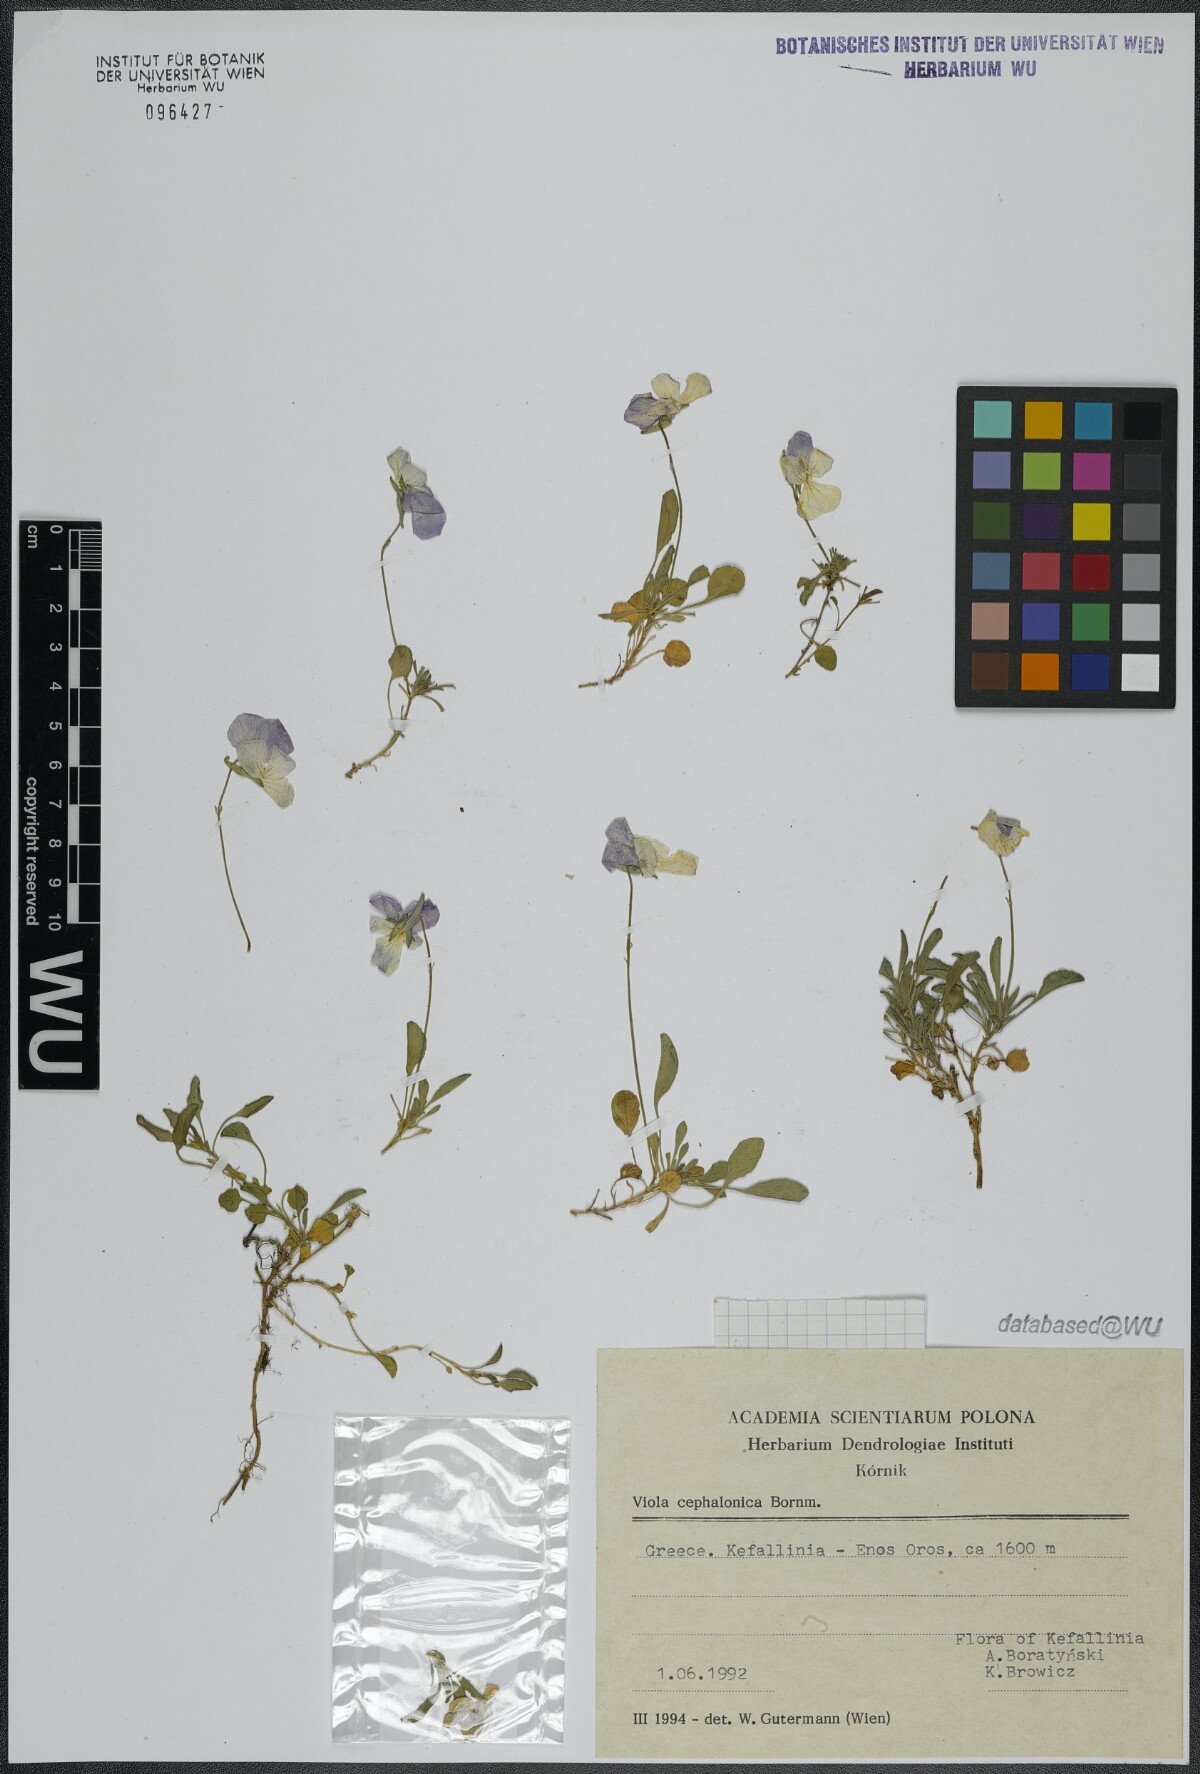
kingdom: Plantae
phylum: Tracheophyta
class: Magnoliopsida
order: Malpighiales
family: Violaceae
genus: Viola
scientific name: Viola cephalonica
